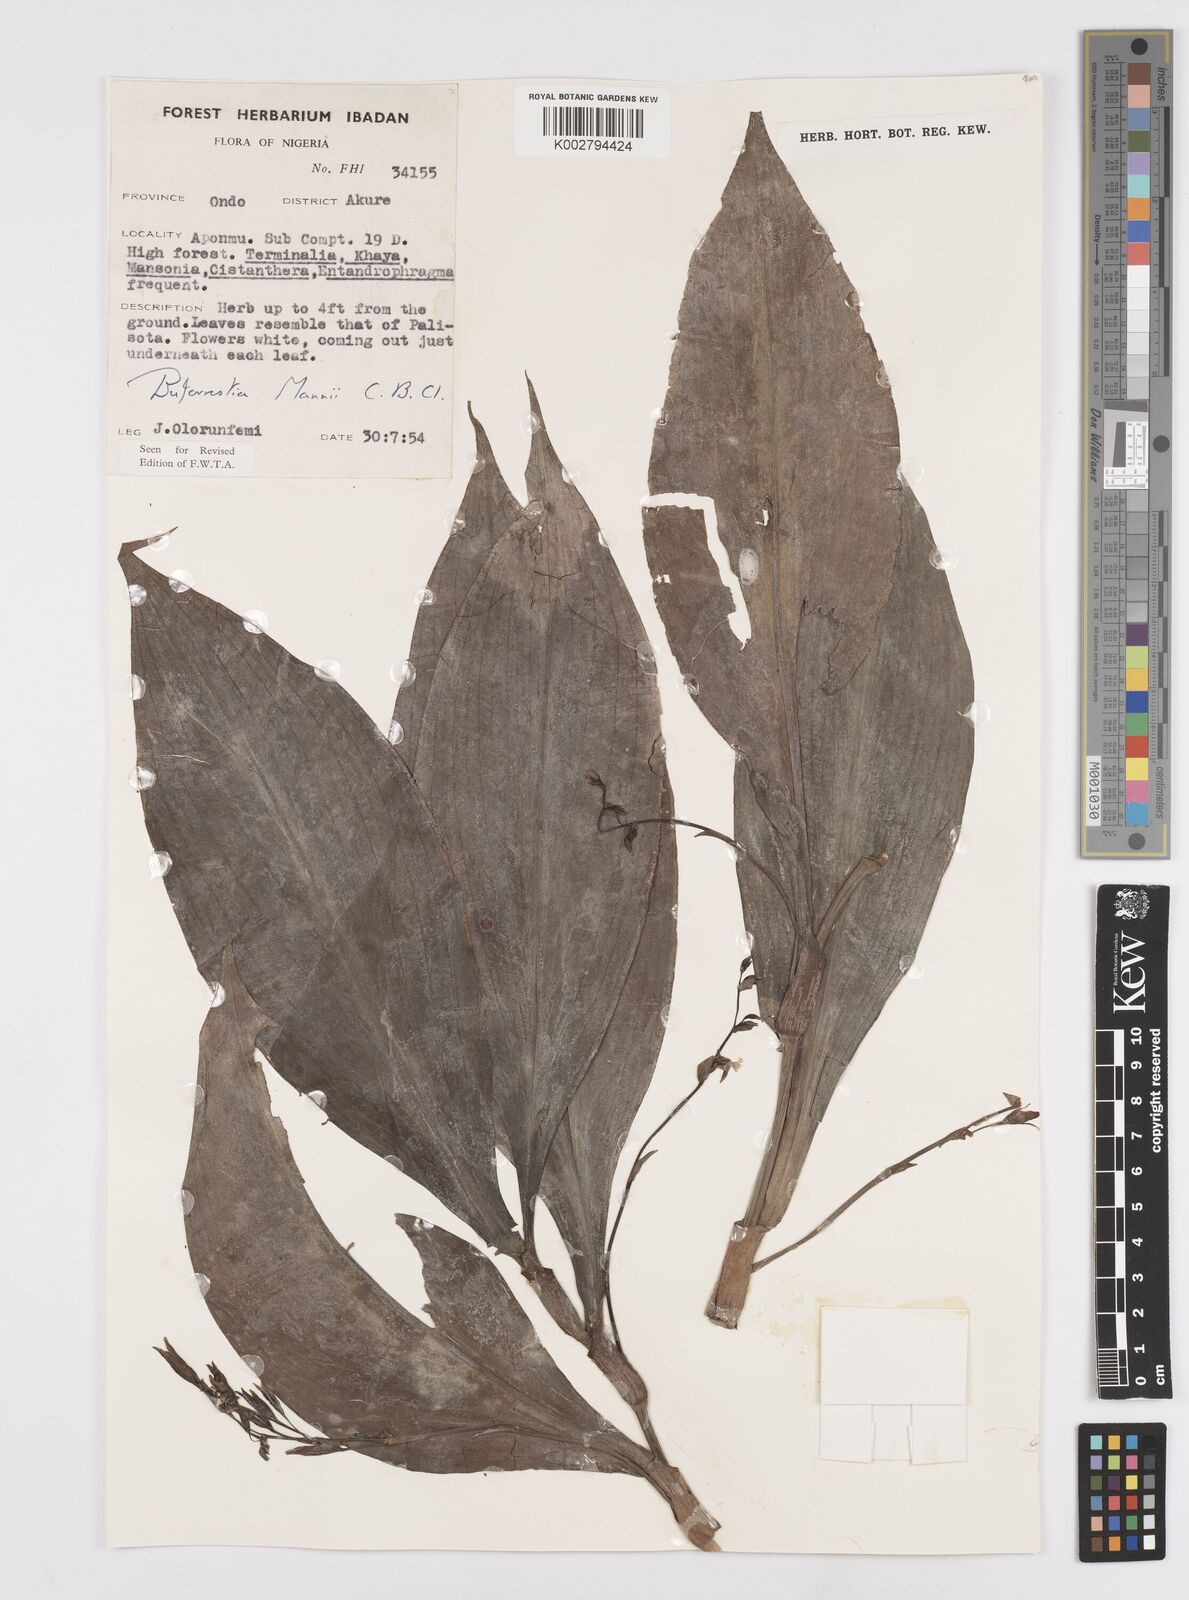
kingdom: Plantae
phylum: Tracheophyta
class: Liliopsida
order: Commelinales
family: Commelinaceae
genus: Buforrestia
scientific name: Buforrestia mannii
